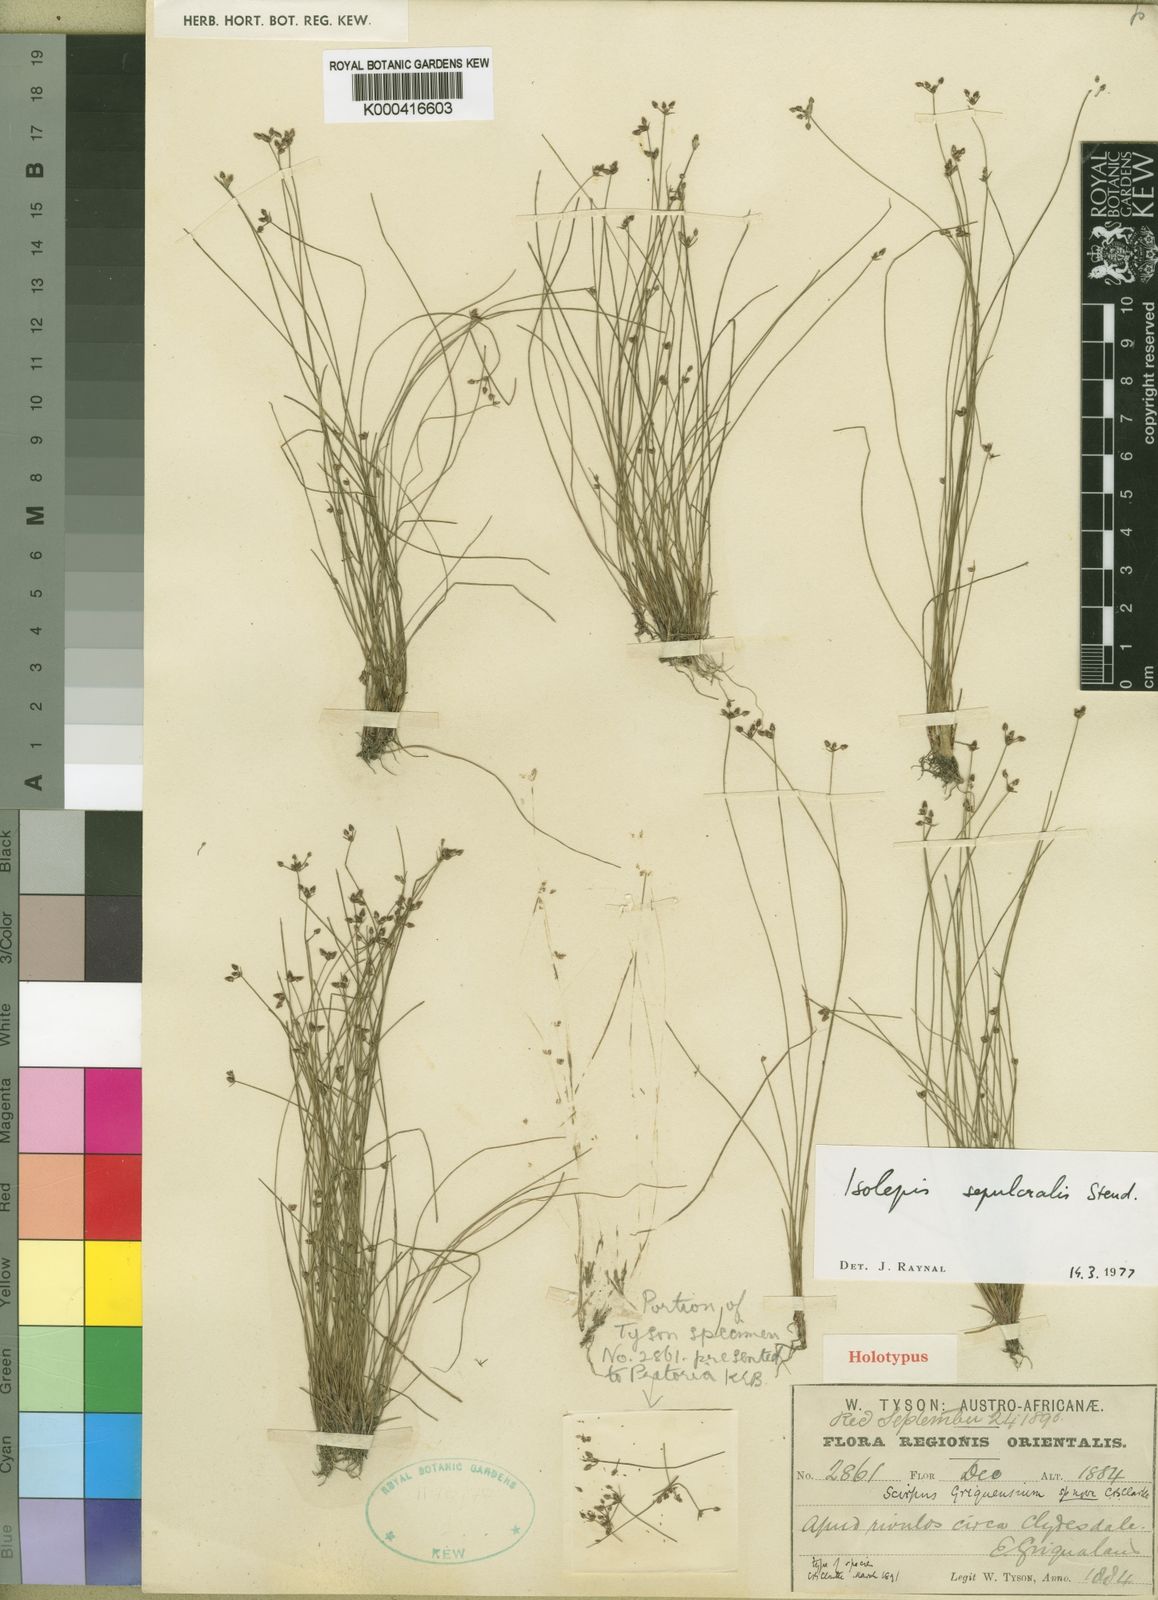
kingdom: Plantae
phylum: Tracheophyta
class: Liliopsida
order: Poales
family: Cyperaceae
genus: Isolepis
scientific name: Isolepis sepulcralis
